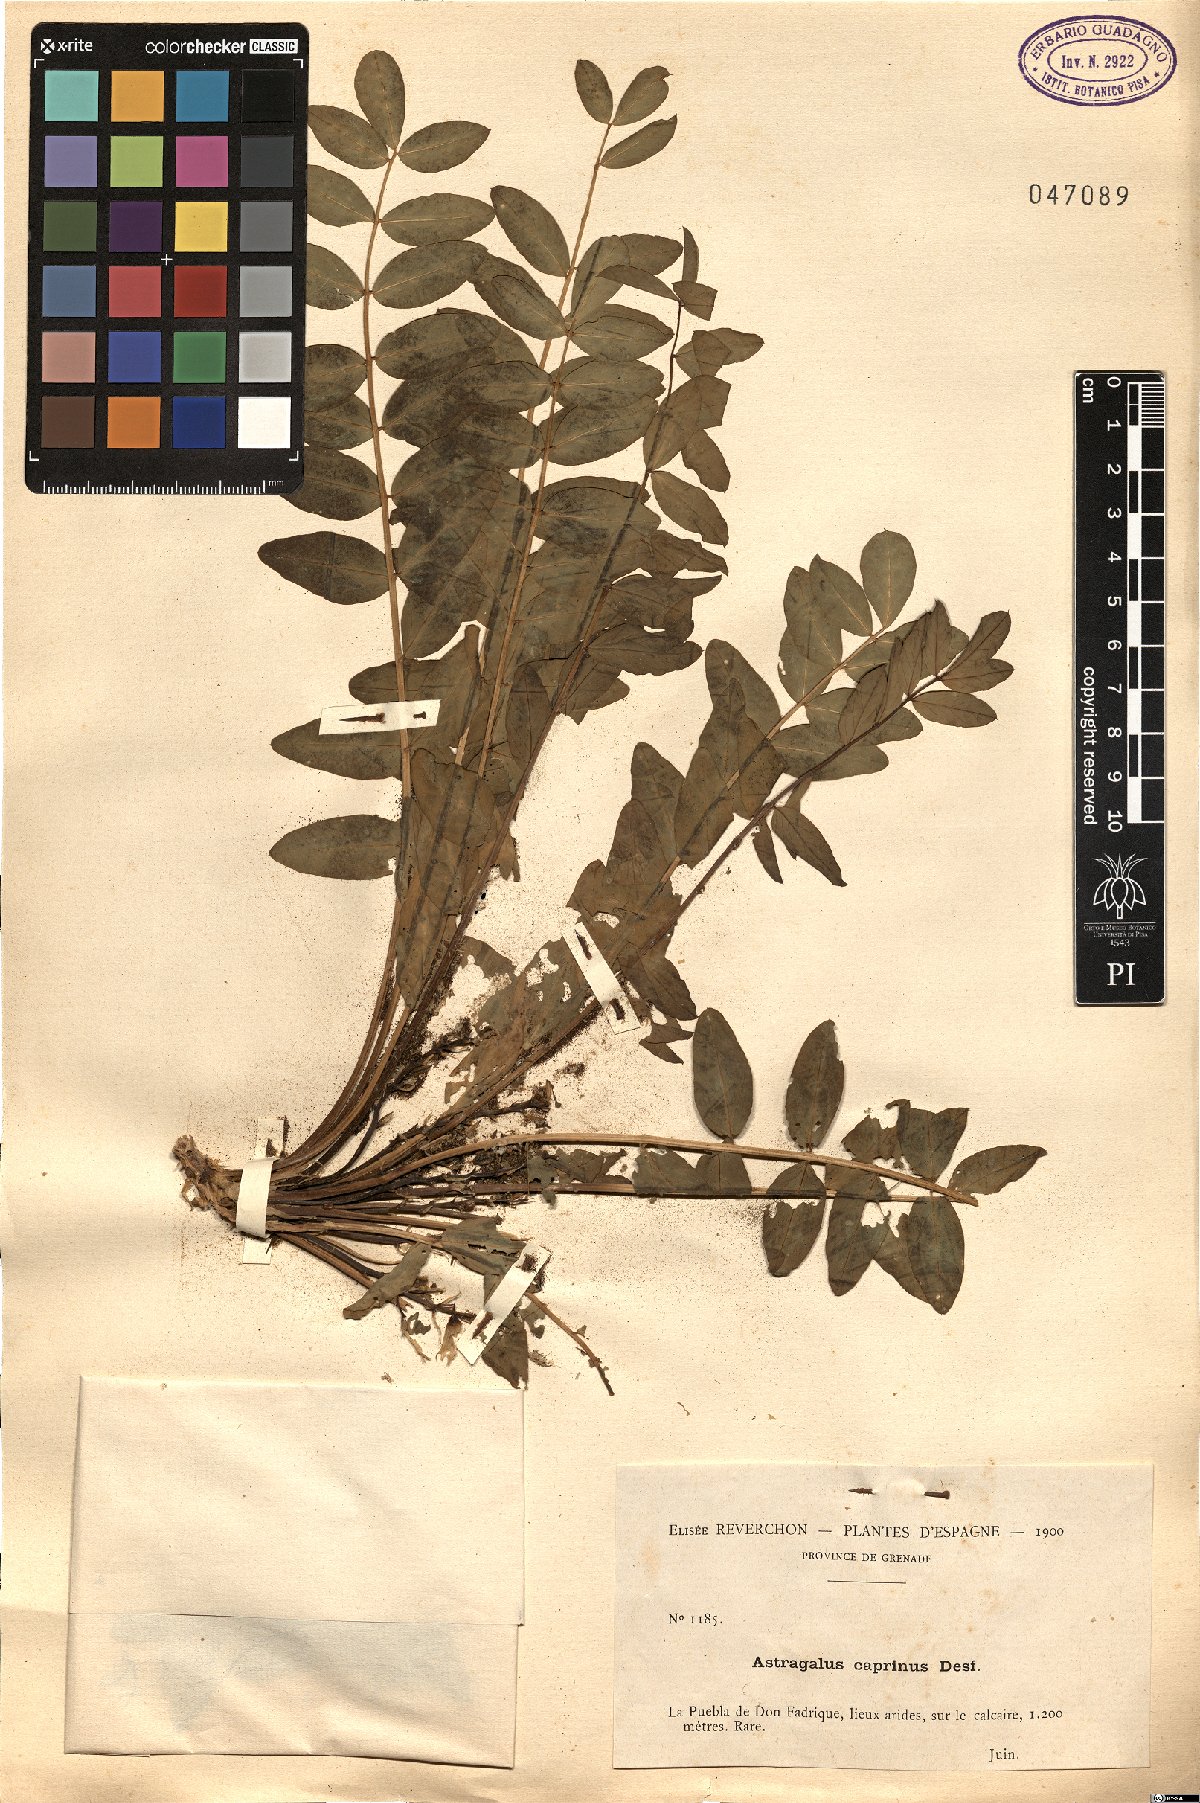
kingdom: Plantae
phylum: Tracheophyta
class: Magnoliopsida
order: Fabales
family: Fabaceae
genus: Astragalus
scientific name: Astragalus caprinus
